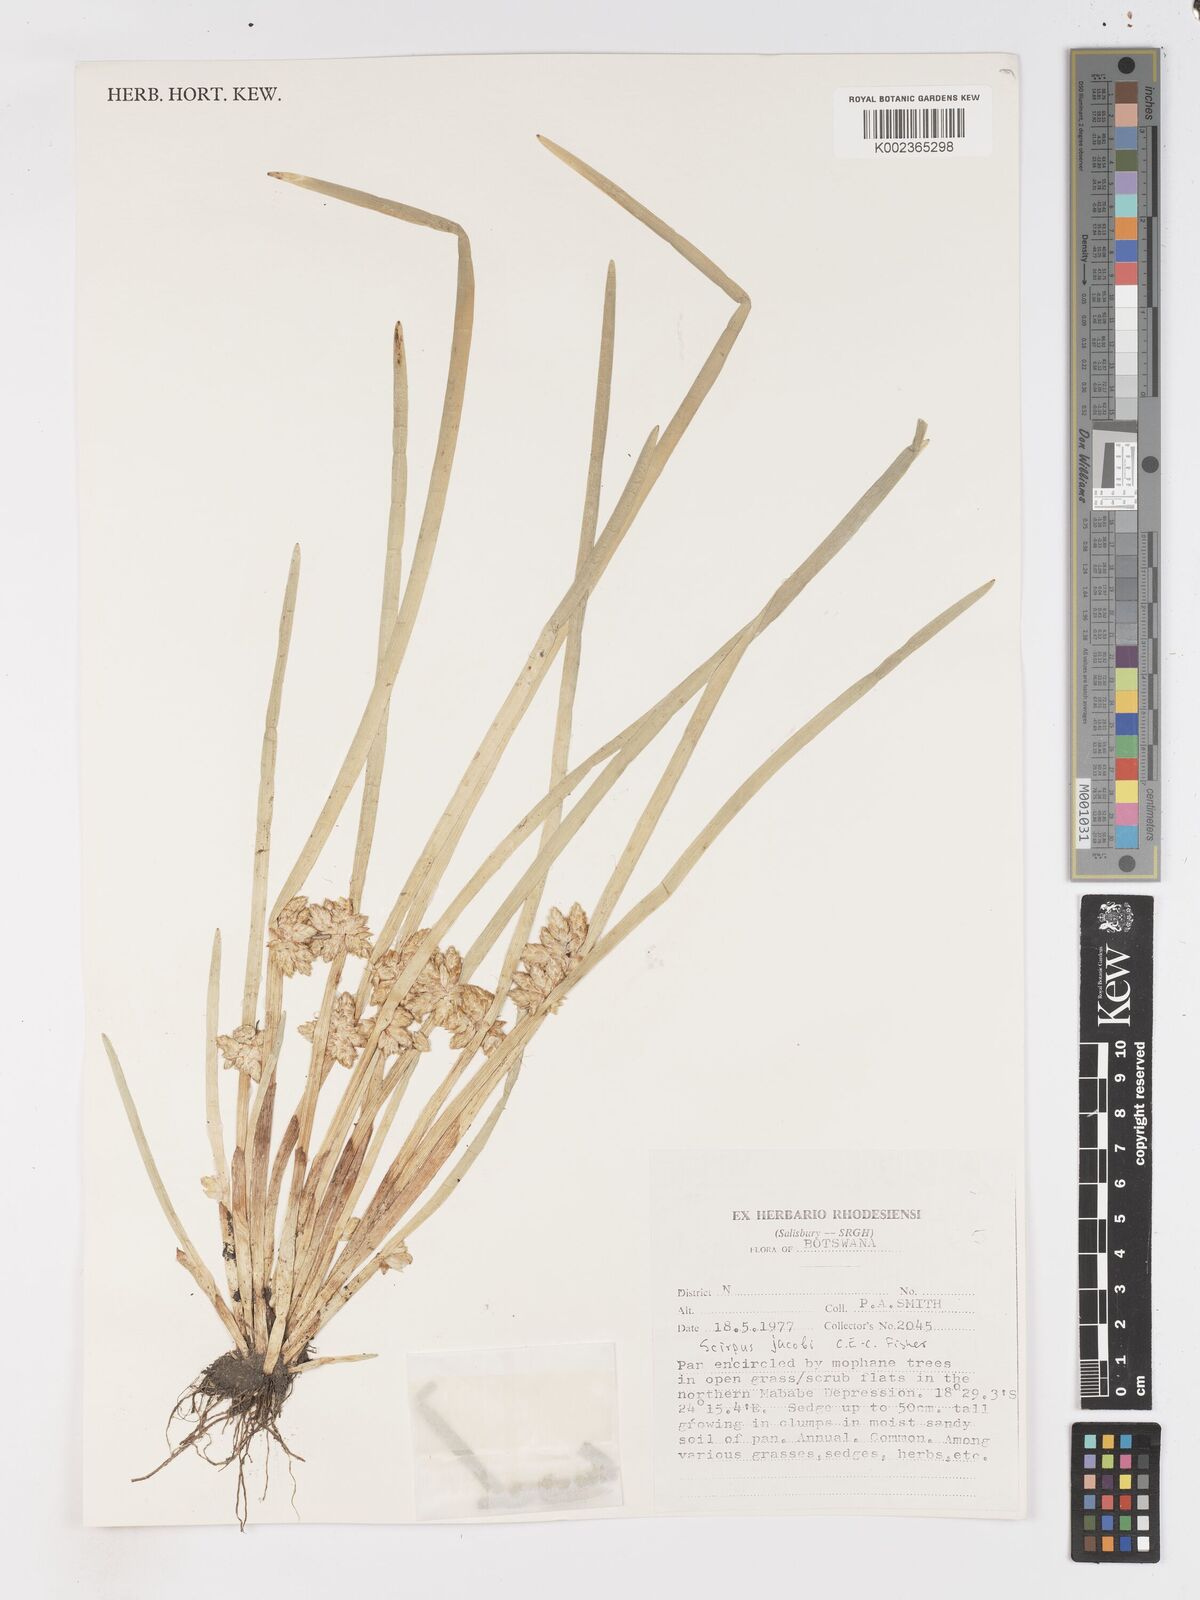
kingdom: Plantae
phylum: Tracheophyta
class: Liliopsida
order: Poales
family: Cyperaceae
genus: Schoenoplectiella
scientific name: Schoenoplectiella senegalensis
